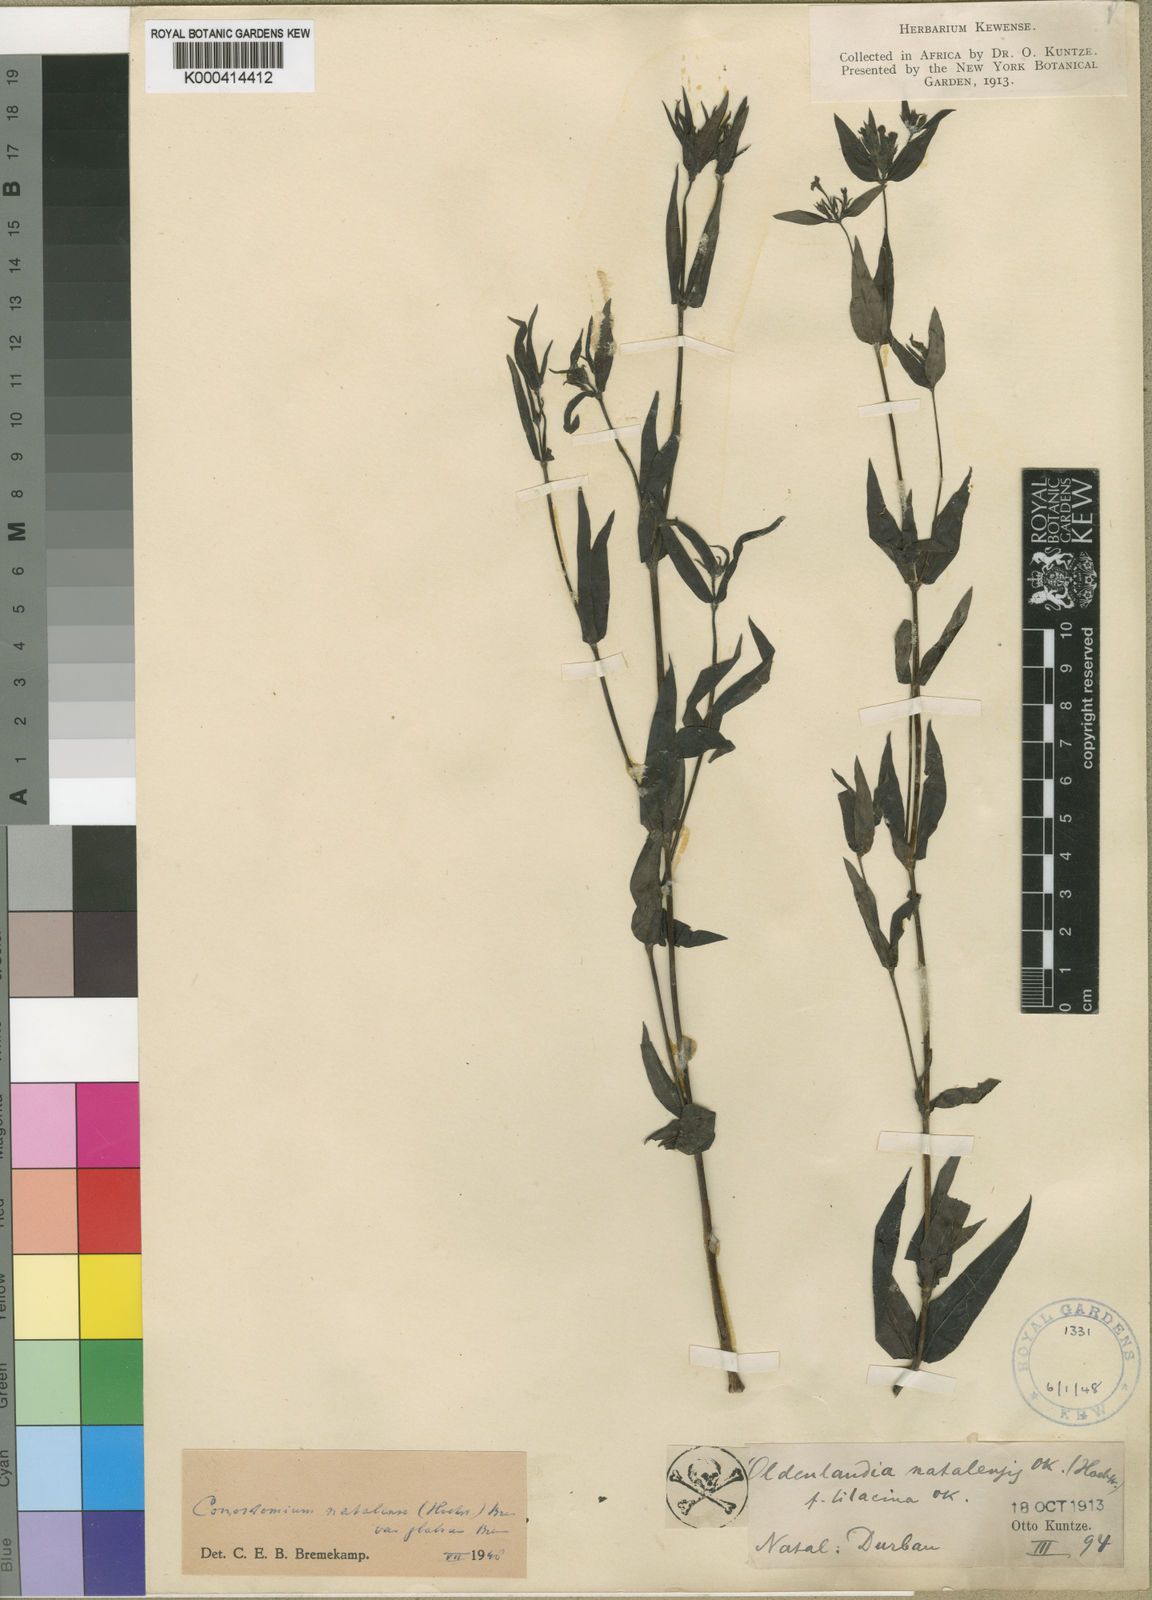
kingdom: Plantae
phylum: Tracheophyta
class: Magnoliopsida
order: Gentianales
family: Rubiaceae
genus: Conostomium
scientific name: Conostomium natalense
